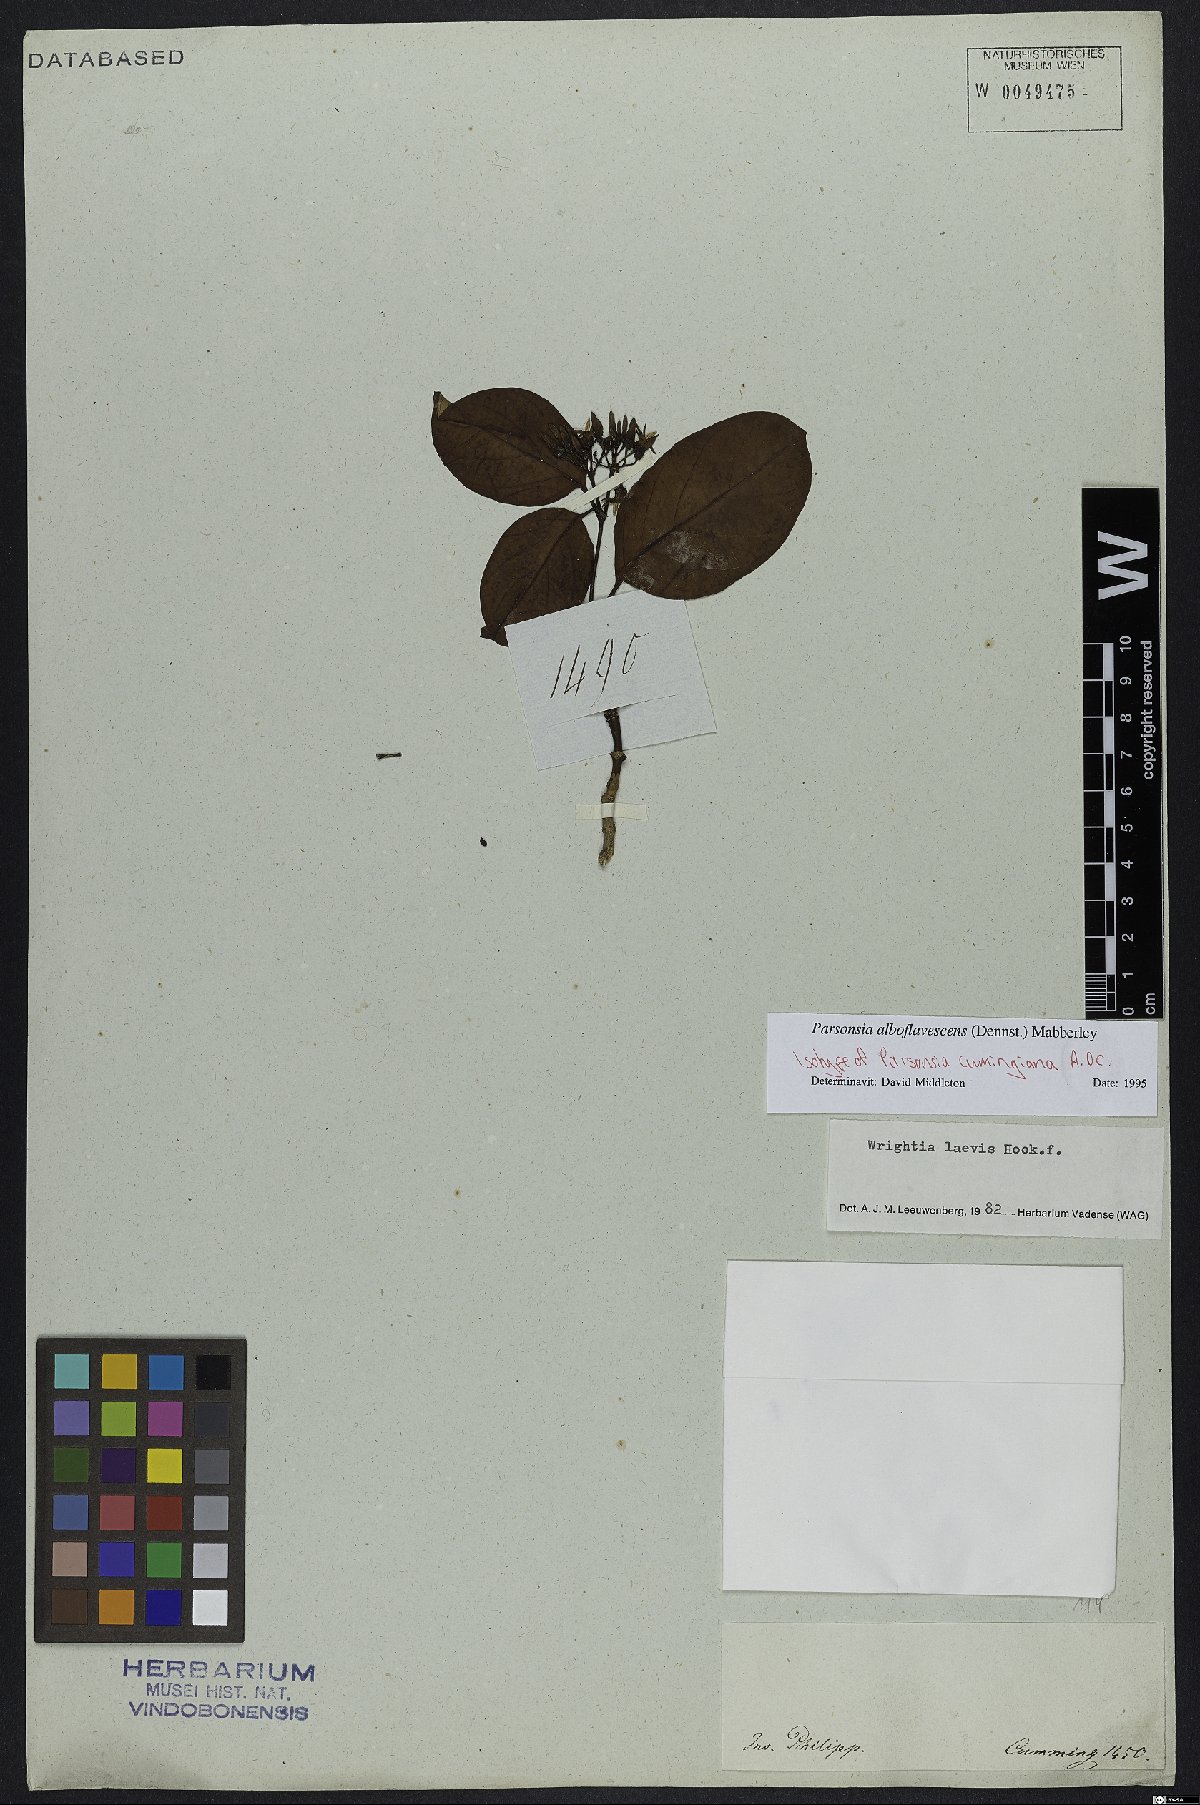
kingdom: Plantae
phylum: Tracheophyta
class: Magnoliopsida
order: Gentianales
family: Apocynaceae
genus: Parsonsia
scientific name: Parsonsia alboflavescens
